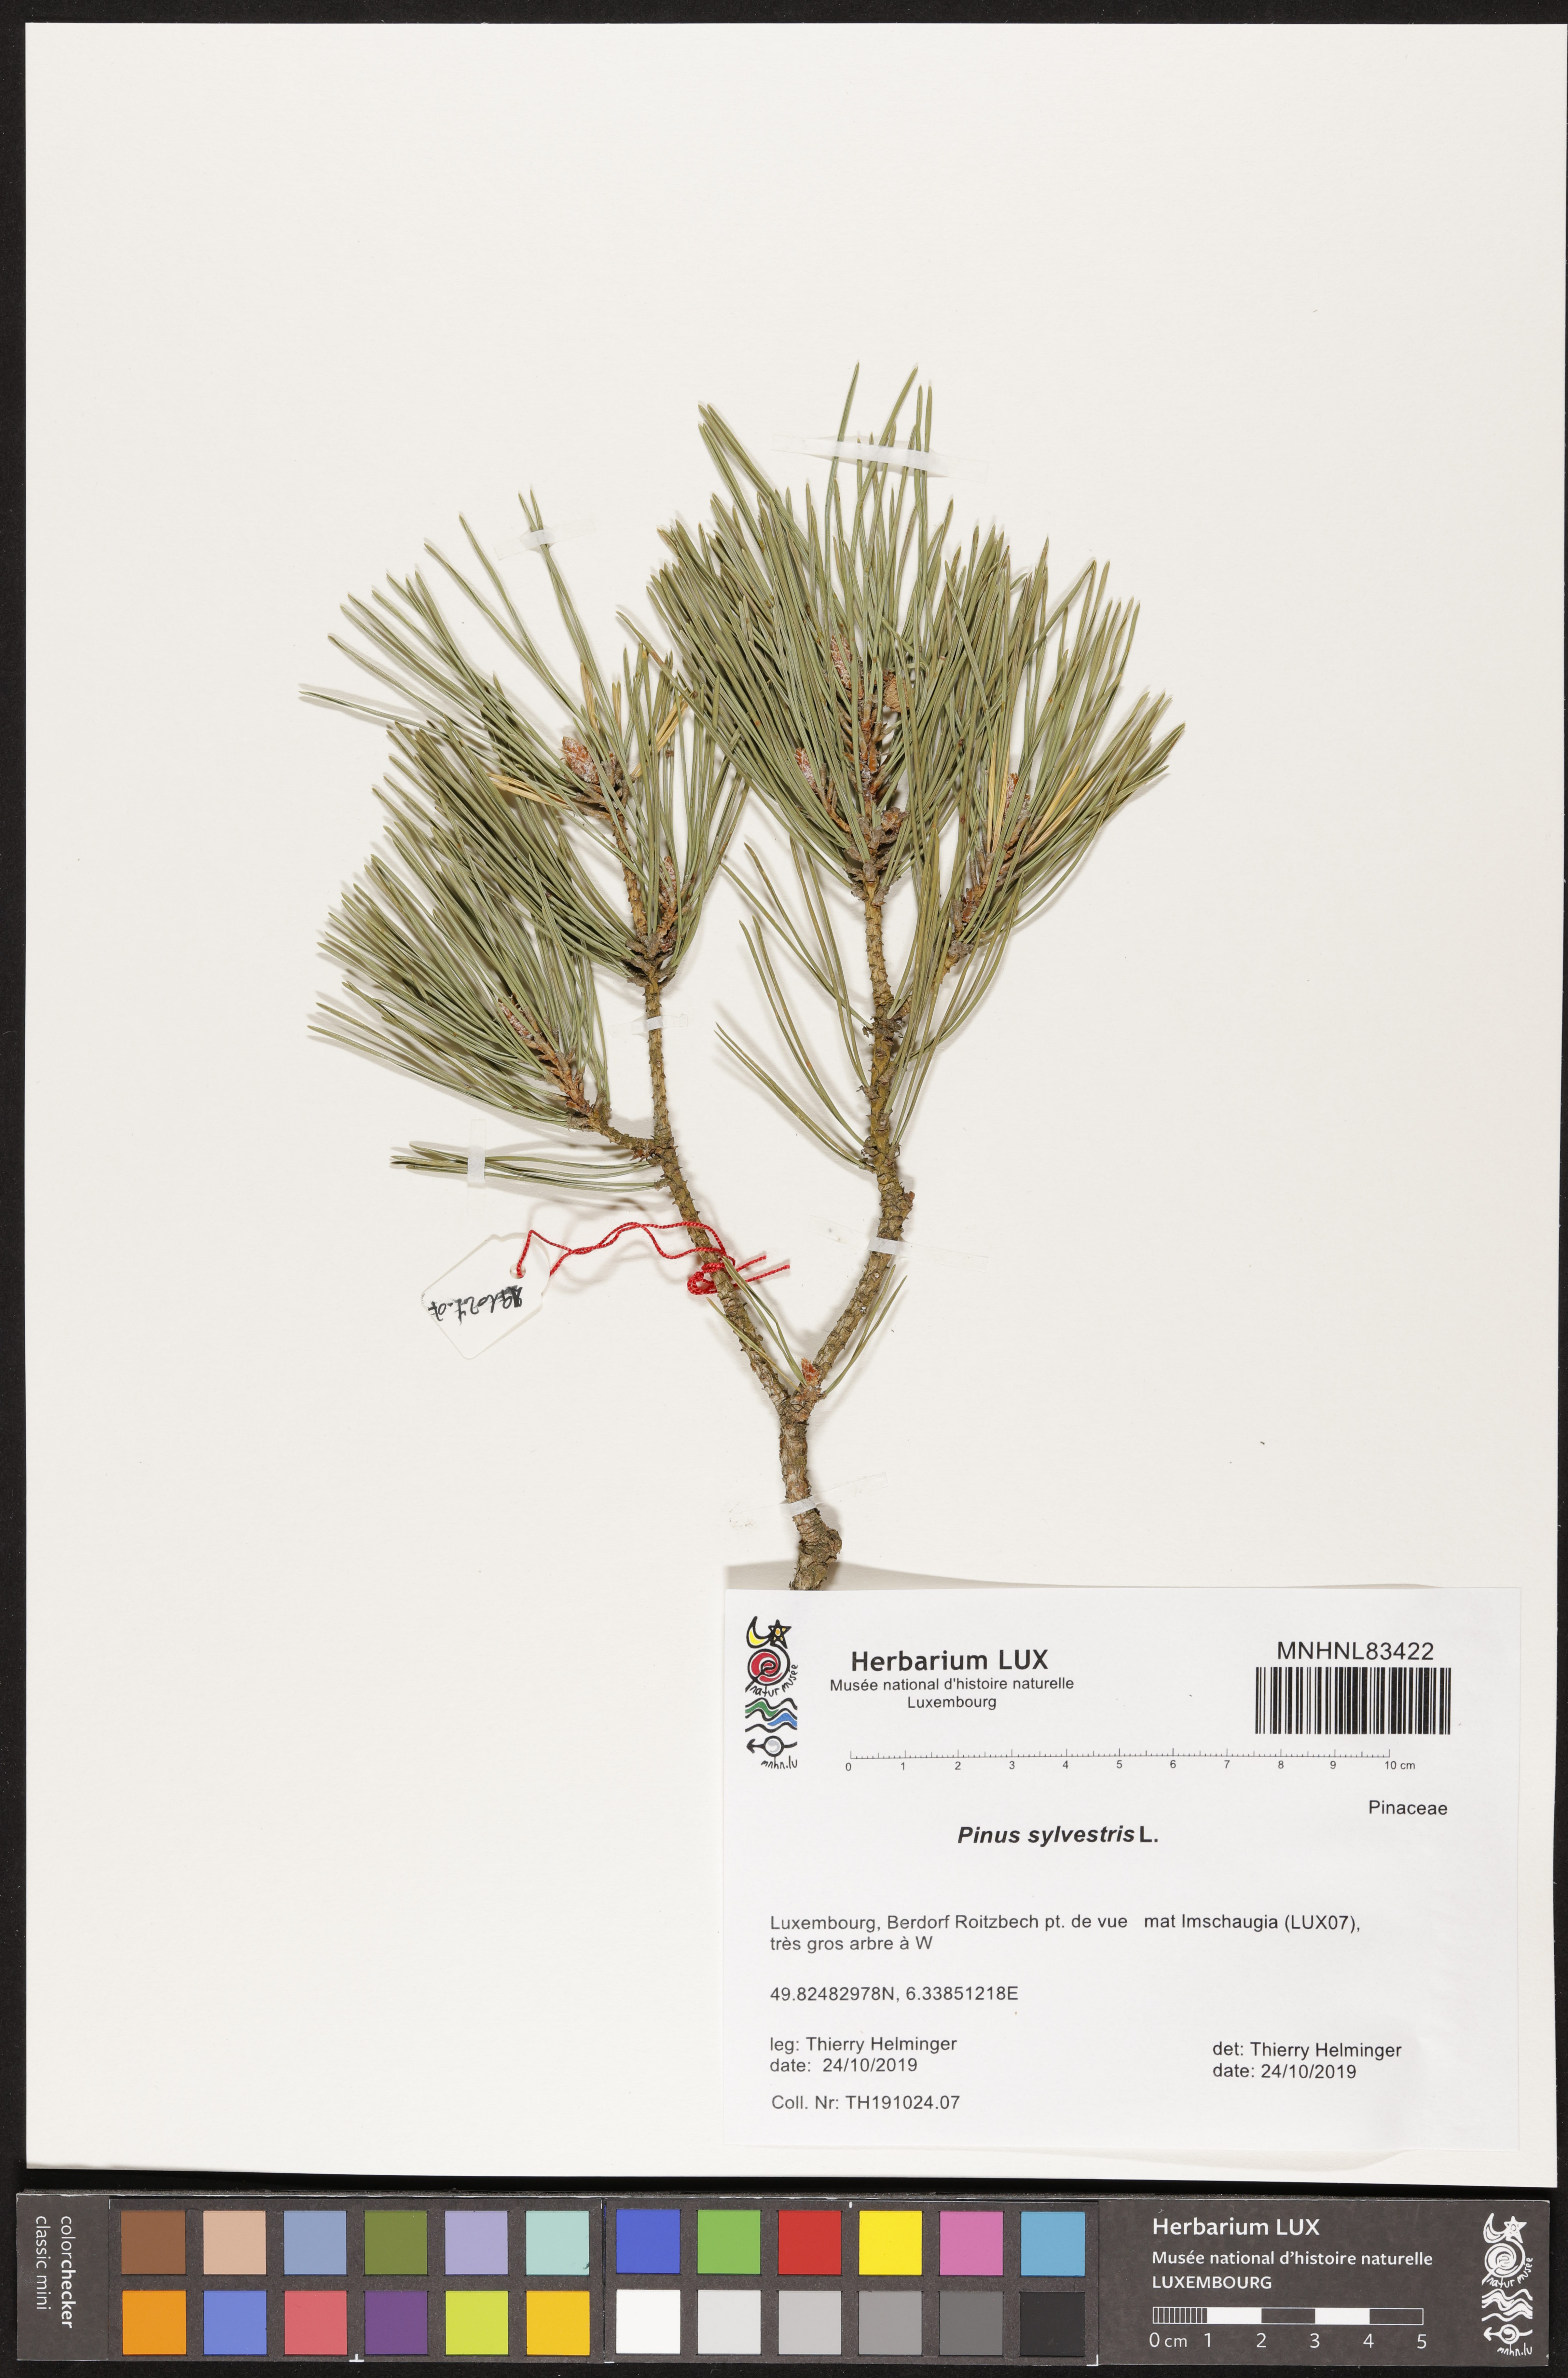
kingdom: Plantae
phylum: Tracheophyta
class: Pinopsida
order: Pinales
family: Pinaceae
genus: Pinus
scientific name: Pinus sylvestris
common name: Scots pine
